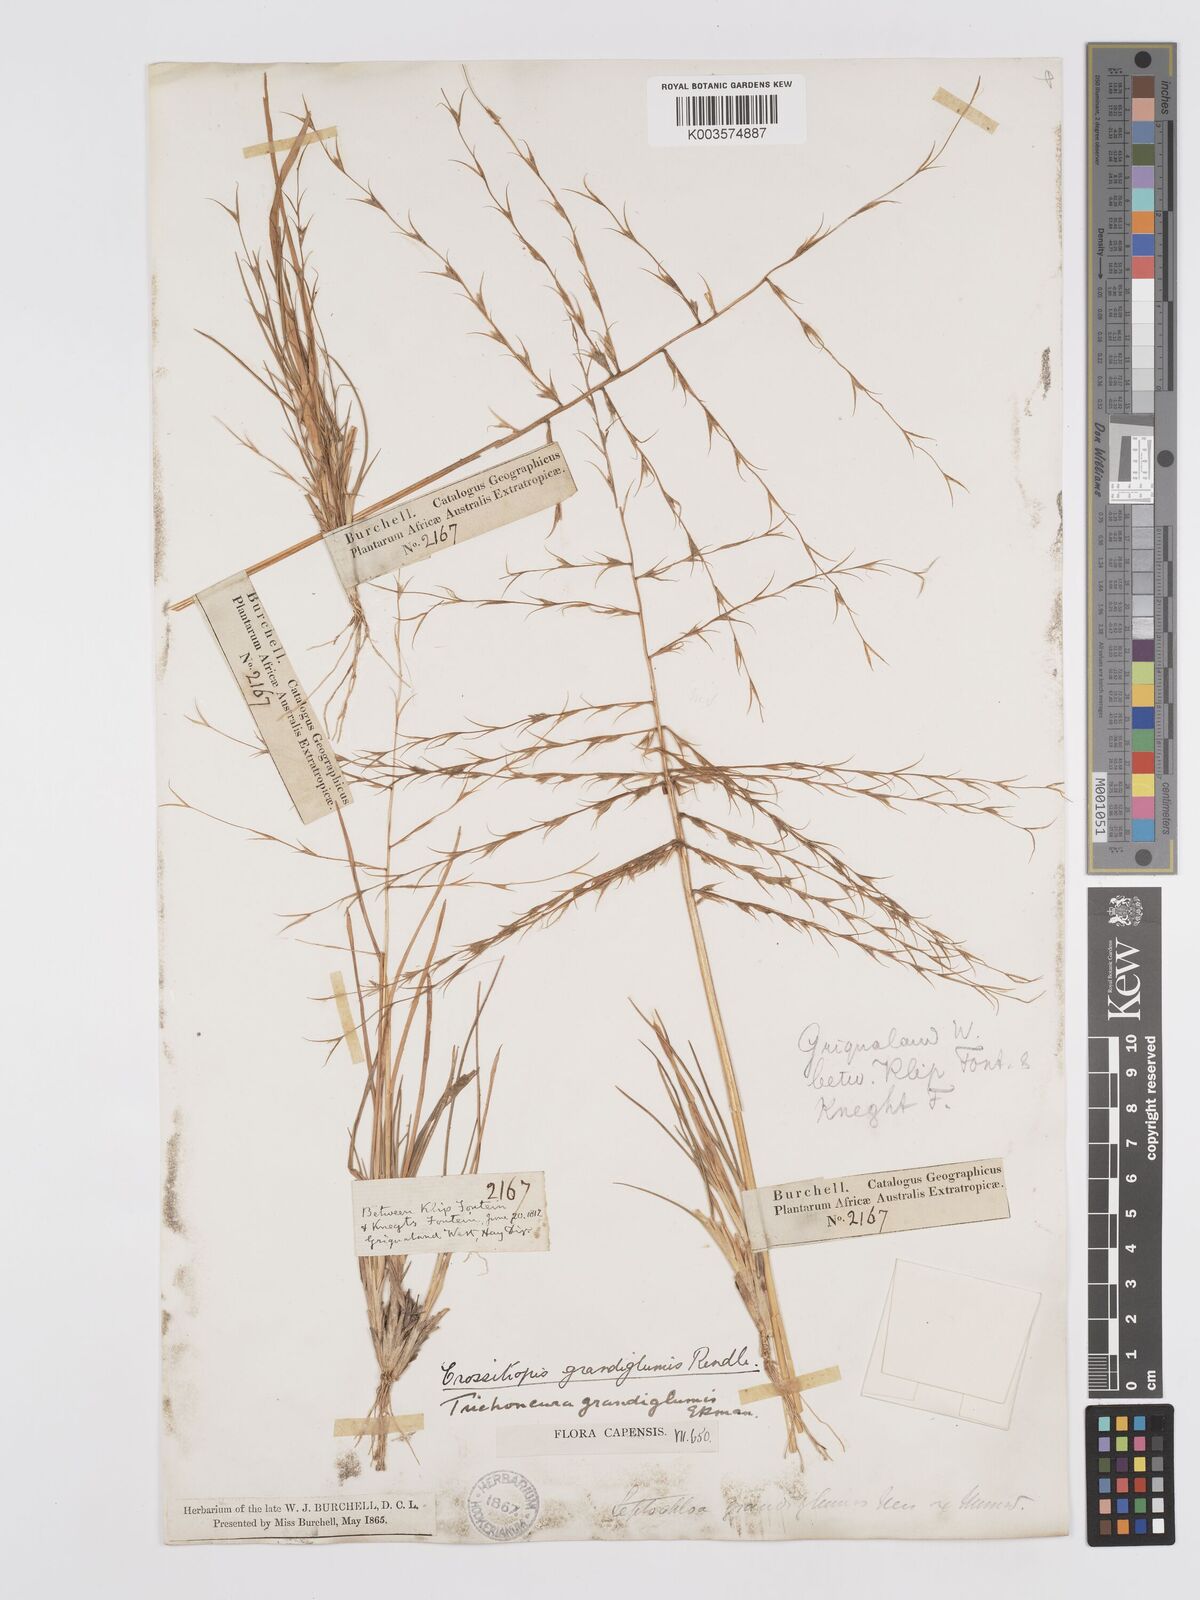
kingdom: Plantae
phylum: Tracheophyta
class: Liliopsida
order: Poales
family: Poaceae
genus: Trichoneura
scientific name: Trichoneura grandiglumis
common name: Rolling grass
